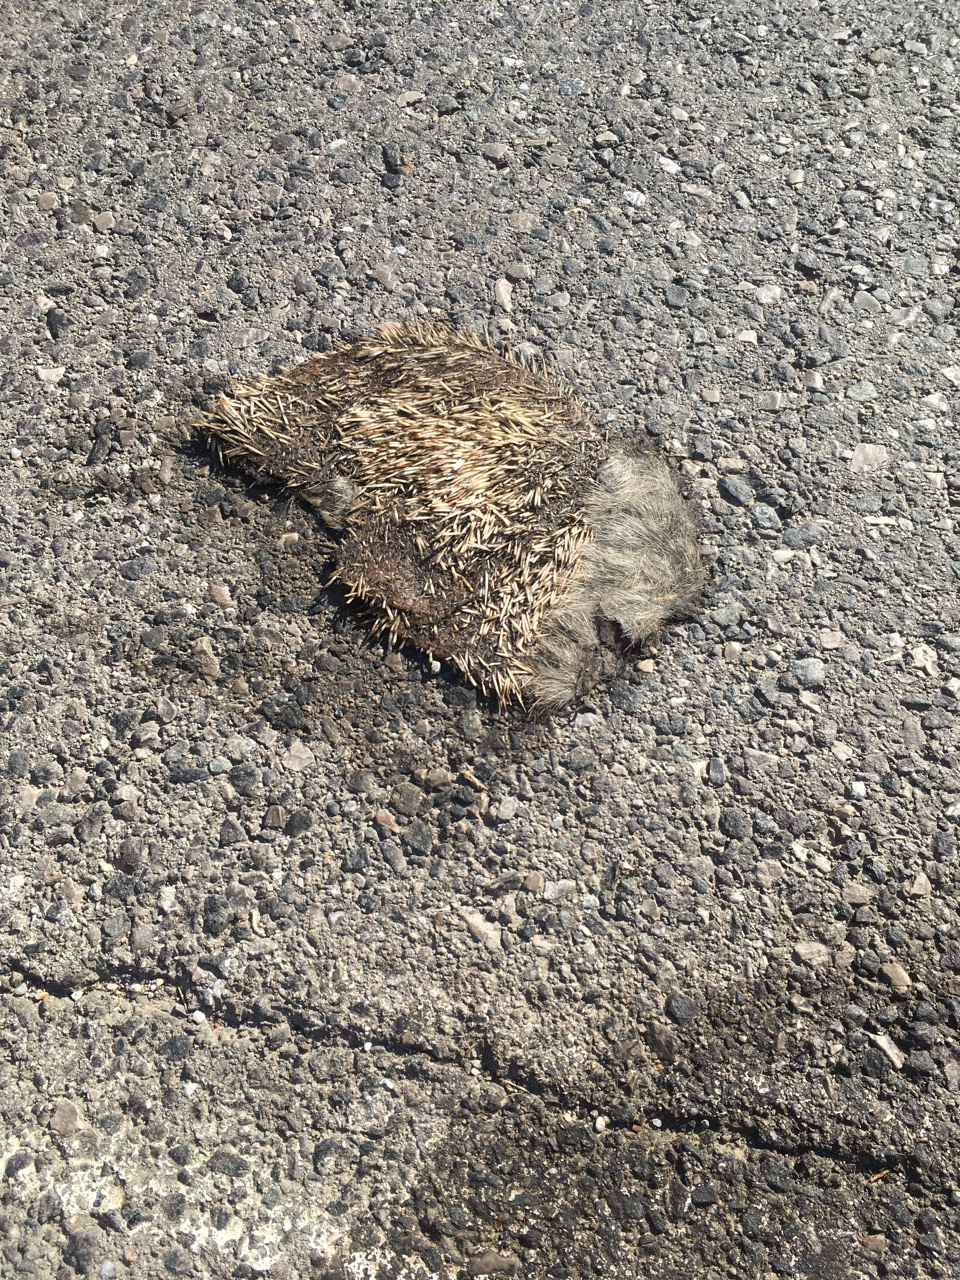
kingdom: Animalia
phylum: Chordata
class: Mammalia
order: Erinaceomorpha
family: Erinaceidae
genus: Erinaceus
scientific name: Erinaceus
